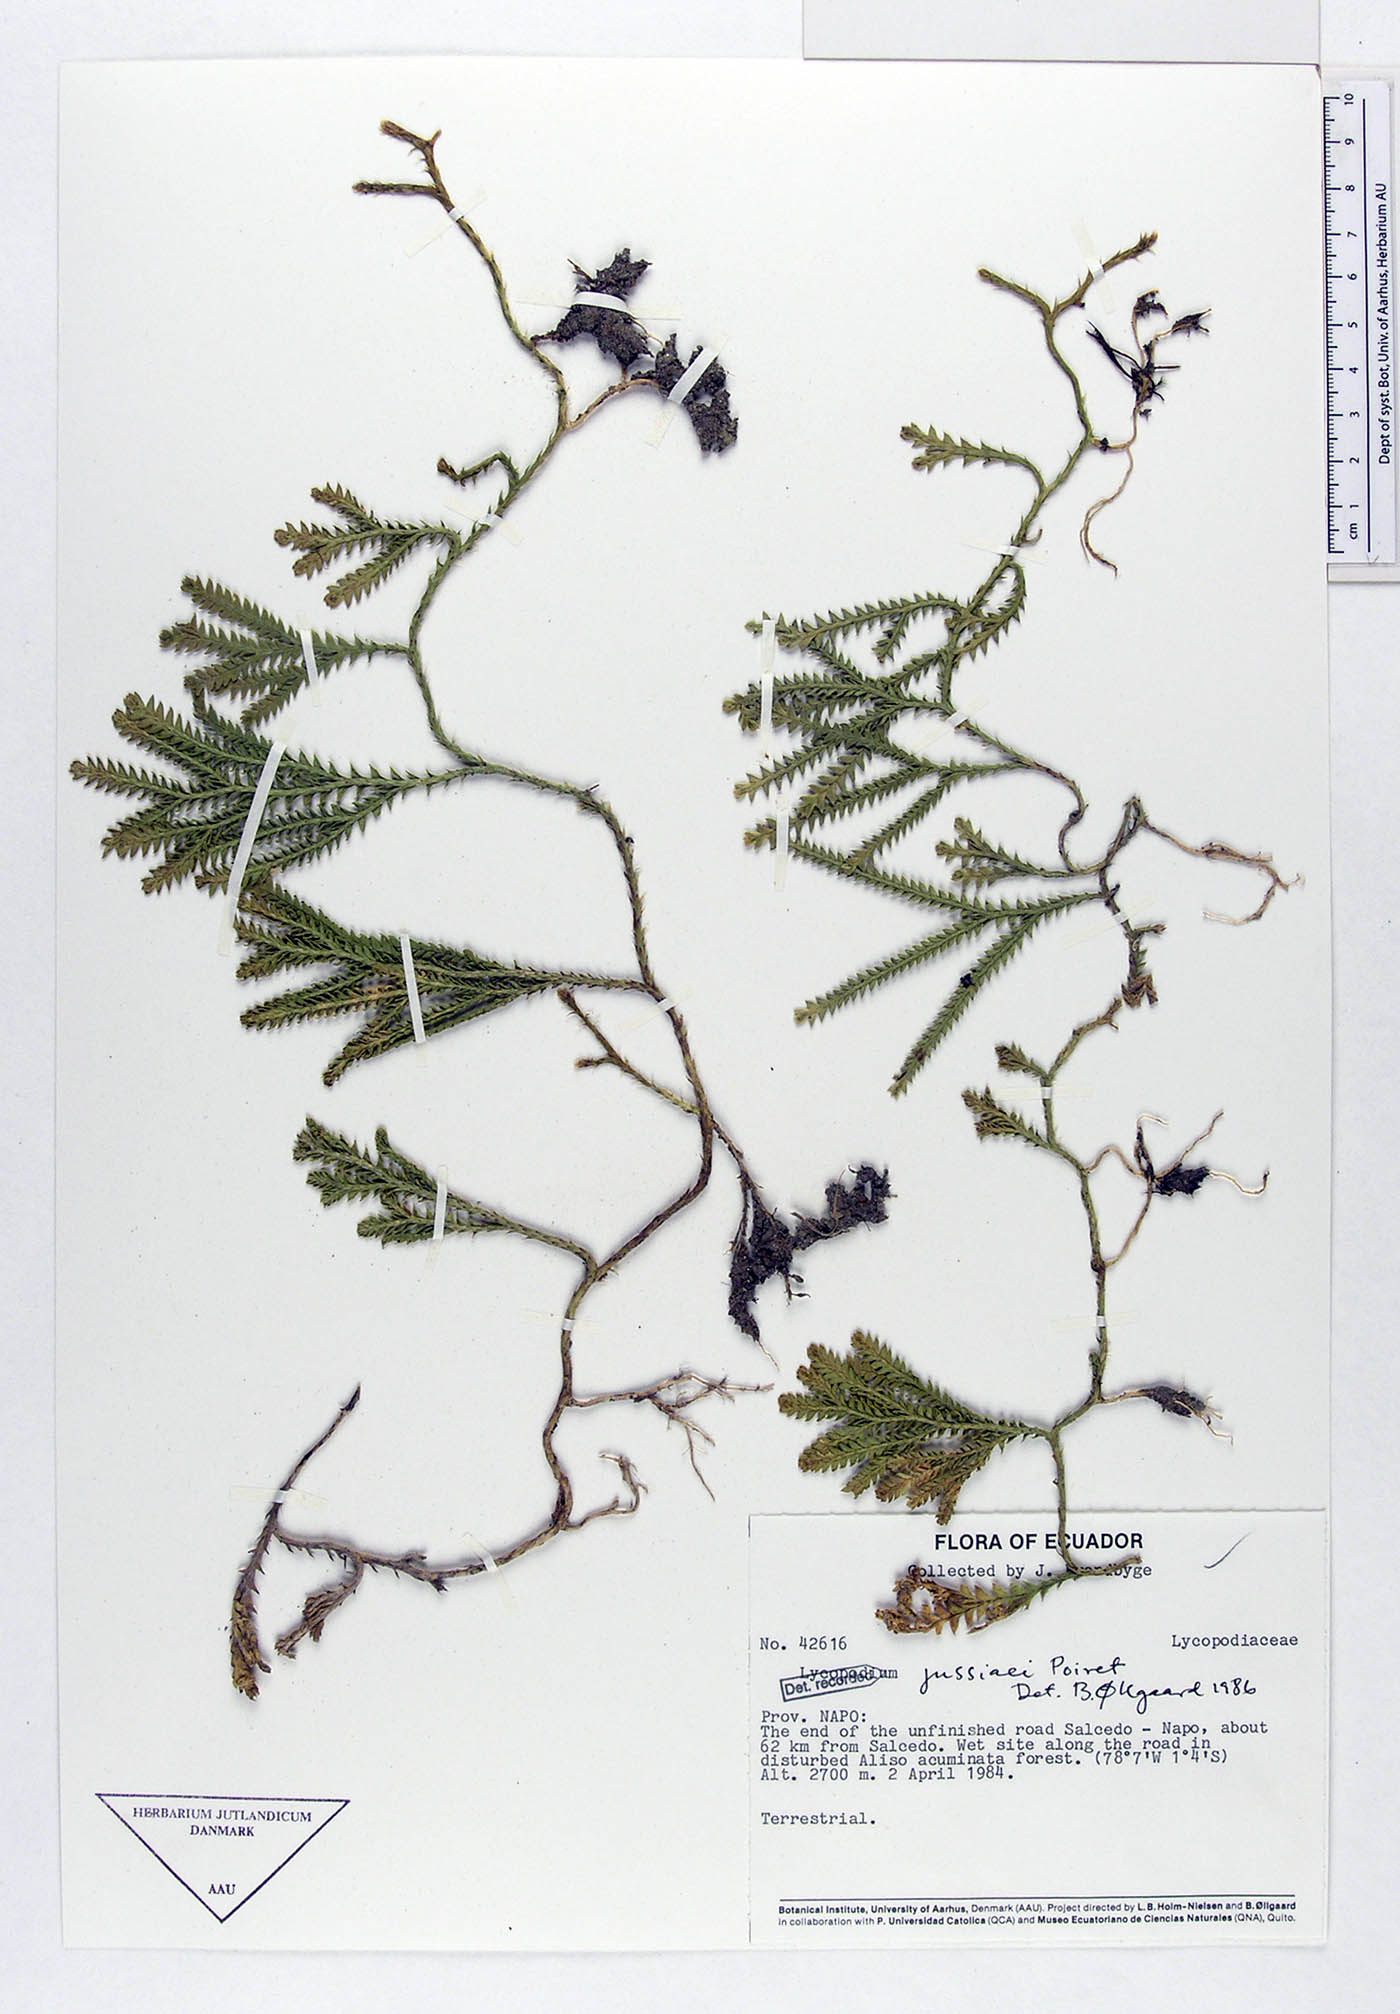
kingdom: Plantae
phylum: Tracheophyta
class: Lycopodiopsida
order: Lycopodiales
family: Lycopodiaceae
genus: Diphasium
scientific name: Diphasium jussiaei
